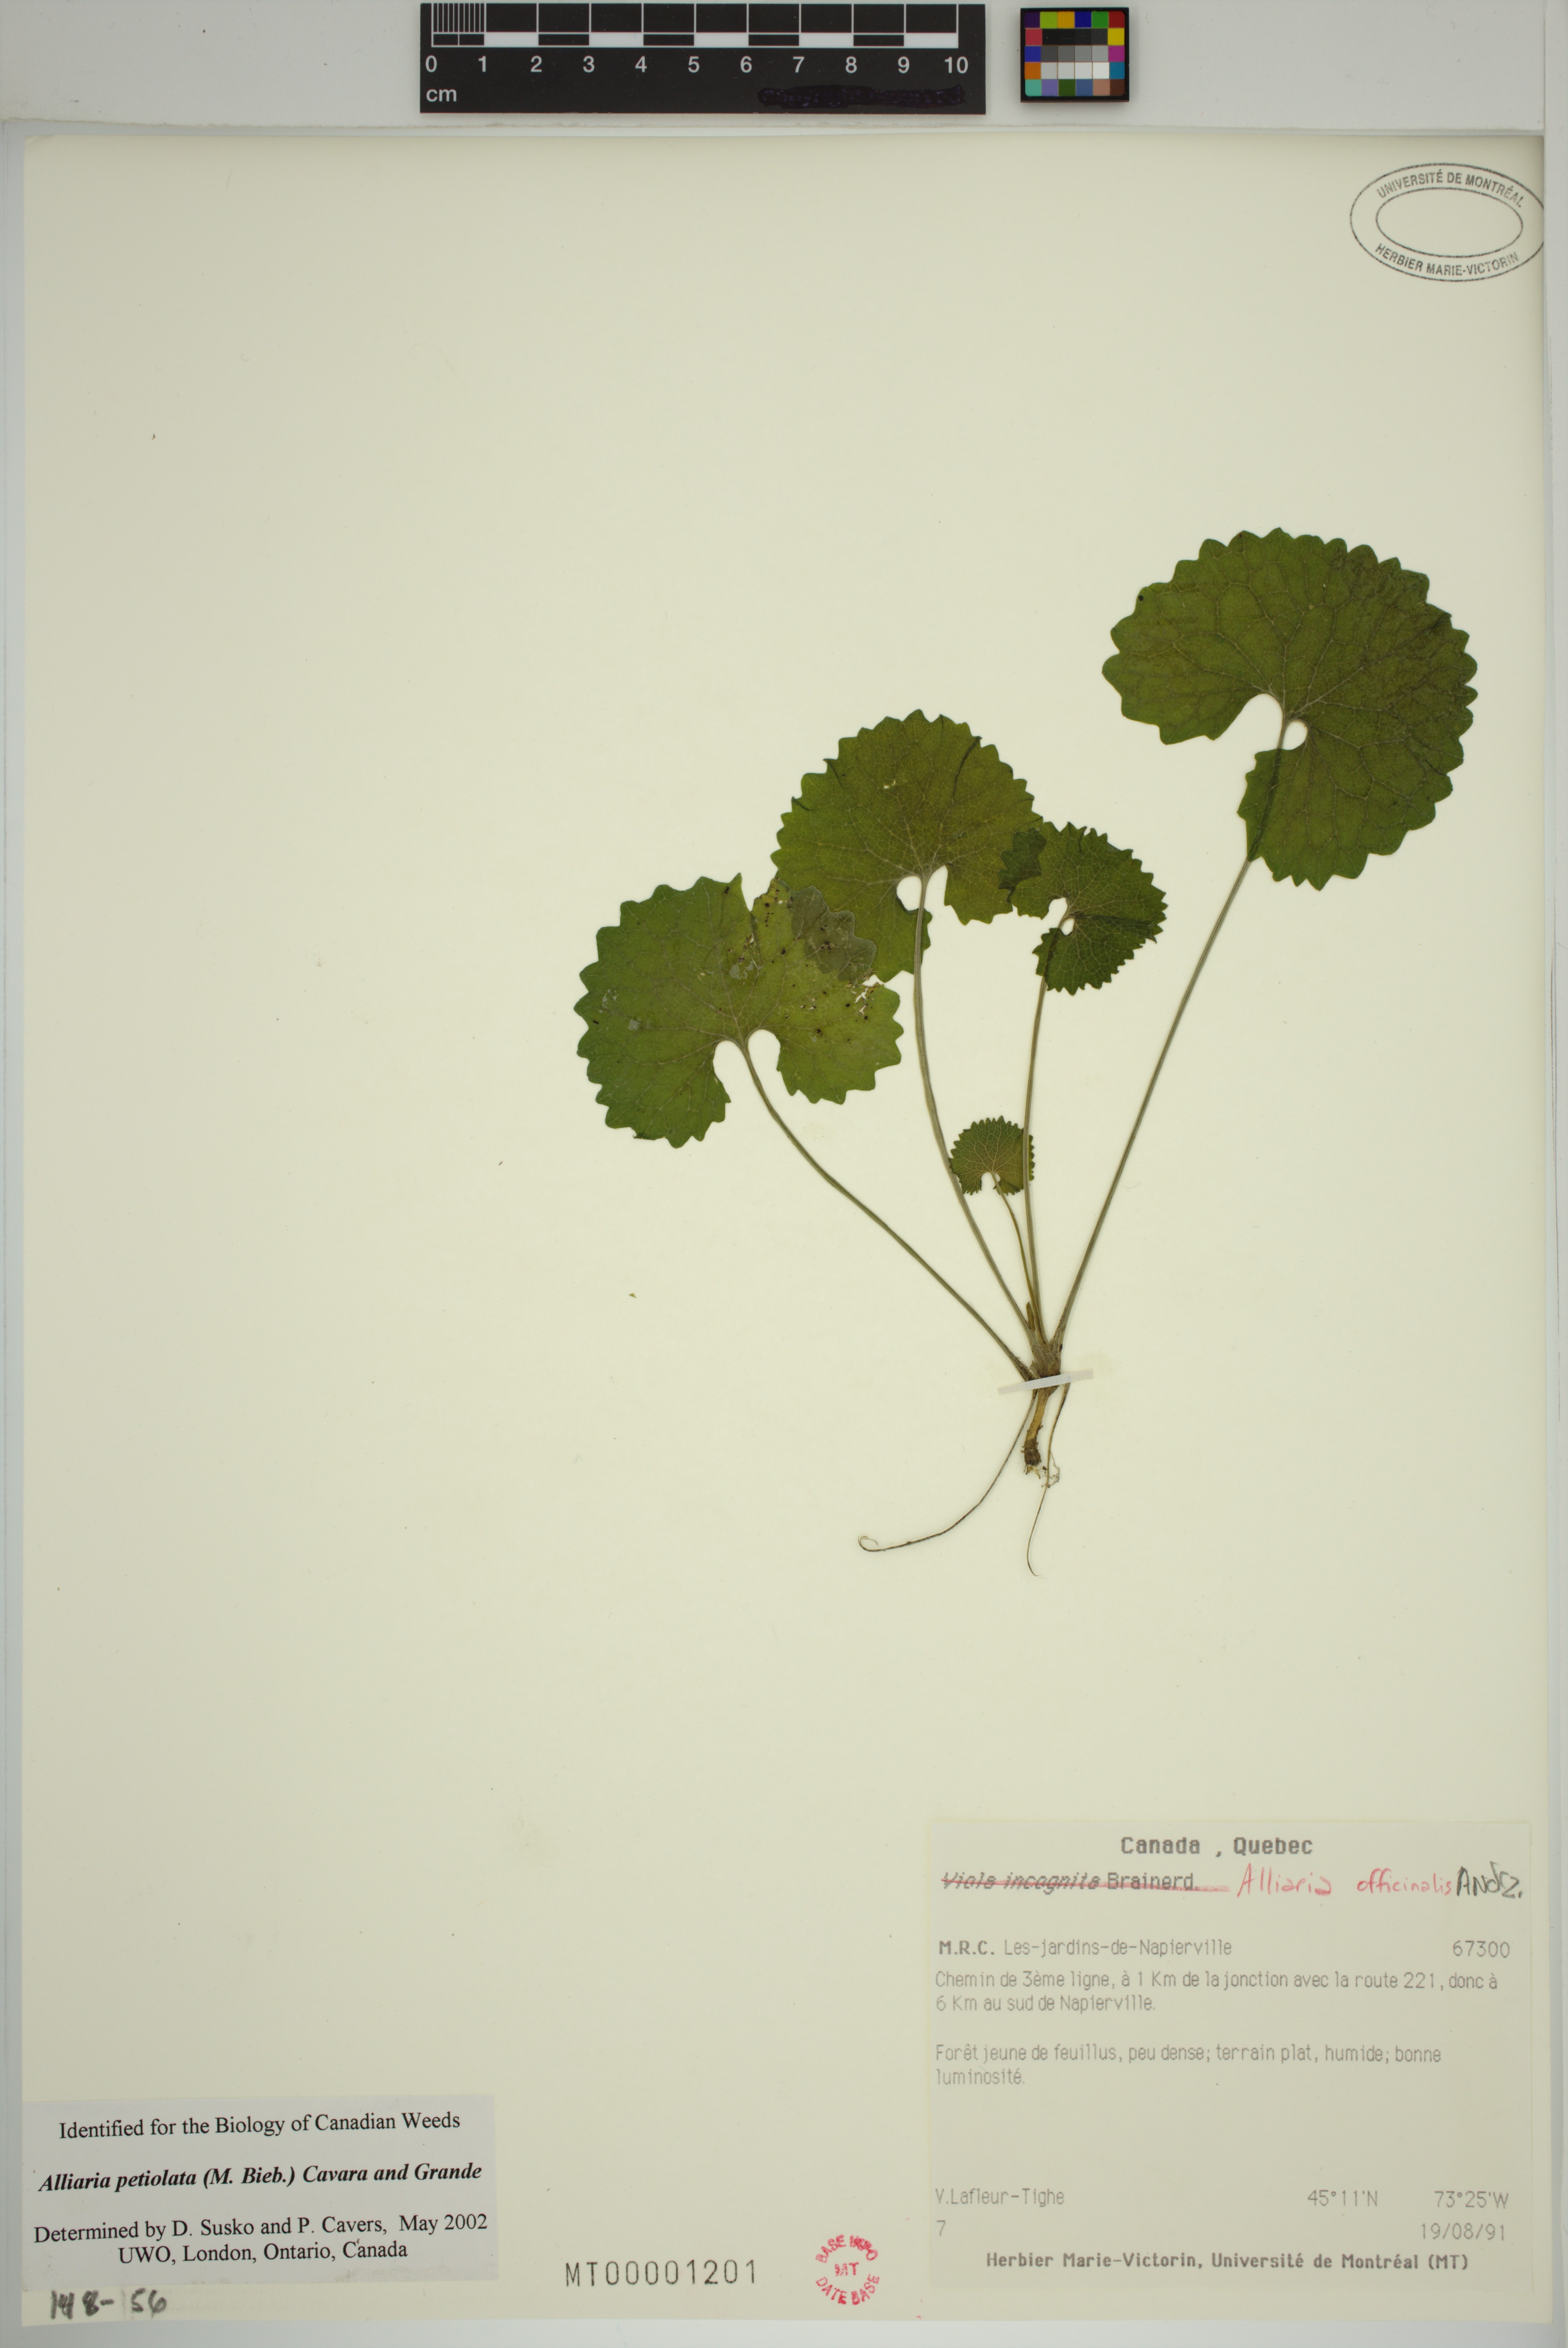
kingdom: Plantae
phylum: Tracheophyta
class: Magnoliopsida
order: Brassicales
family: Brassicaceae
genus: Alliaria
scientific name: Alliaria petiolata
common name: Garlic mustard
